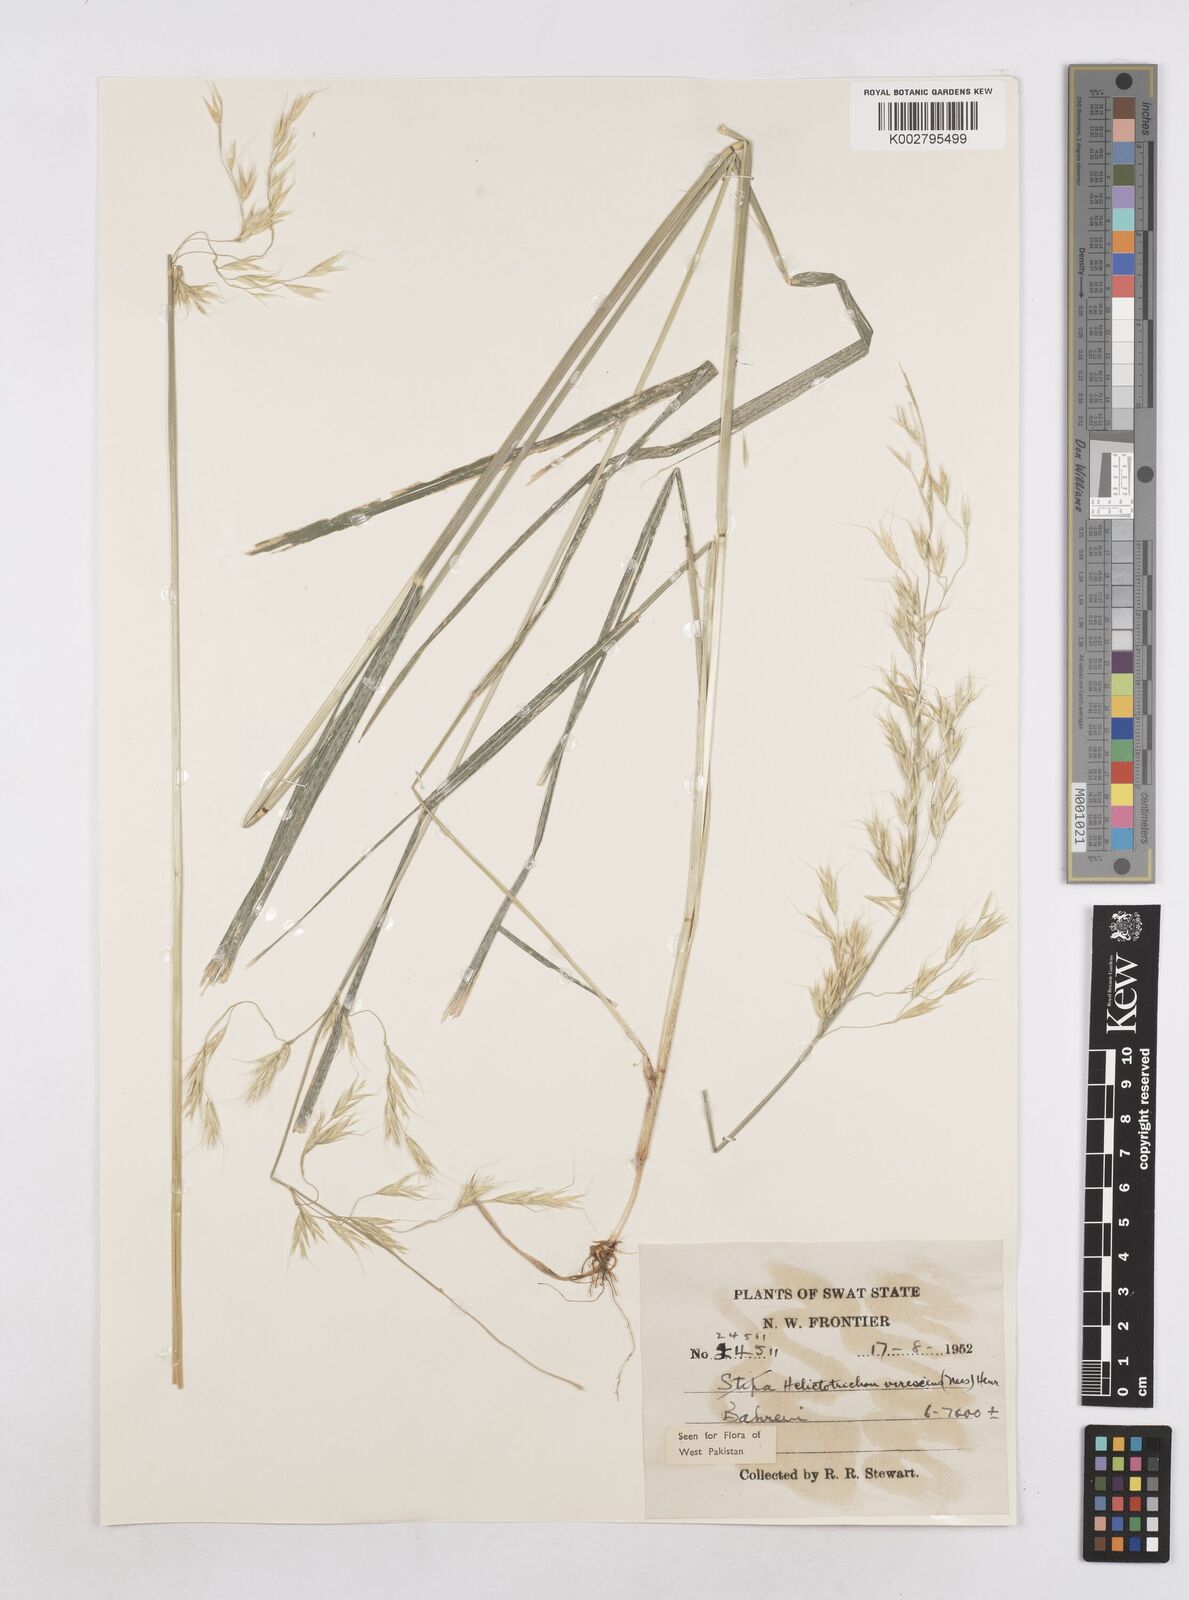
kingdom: Plantae
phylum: Tracheophyta
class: Liliopsida
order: Poales
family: Poaceae
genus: Trisetopsis
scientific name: Trisetopsis junghuhnii
